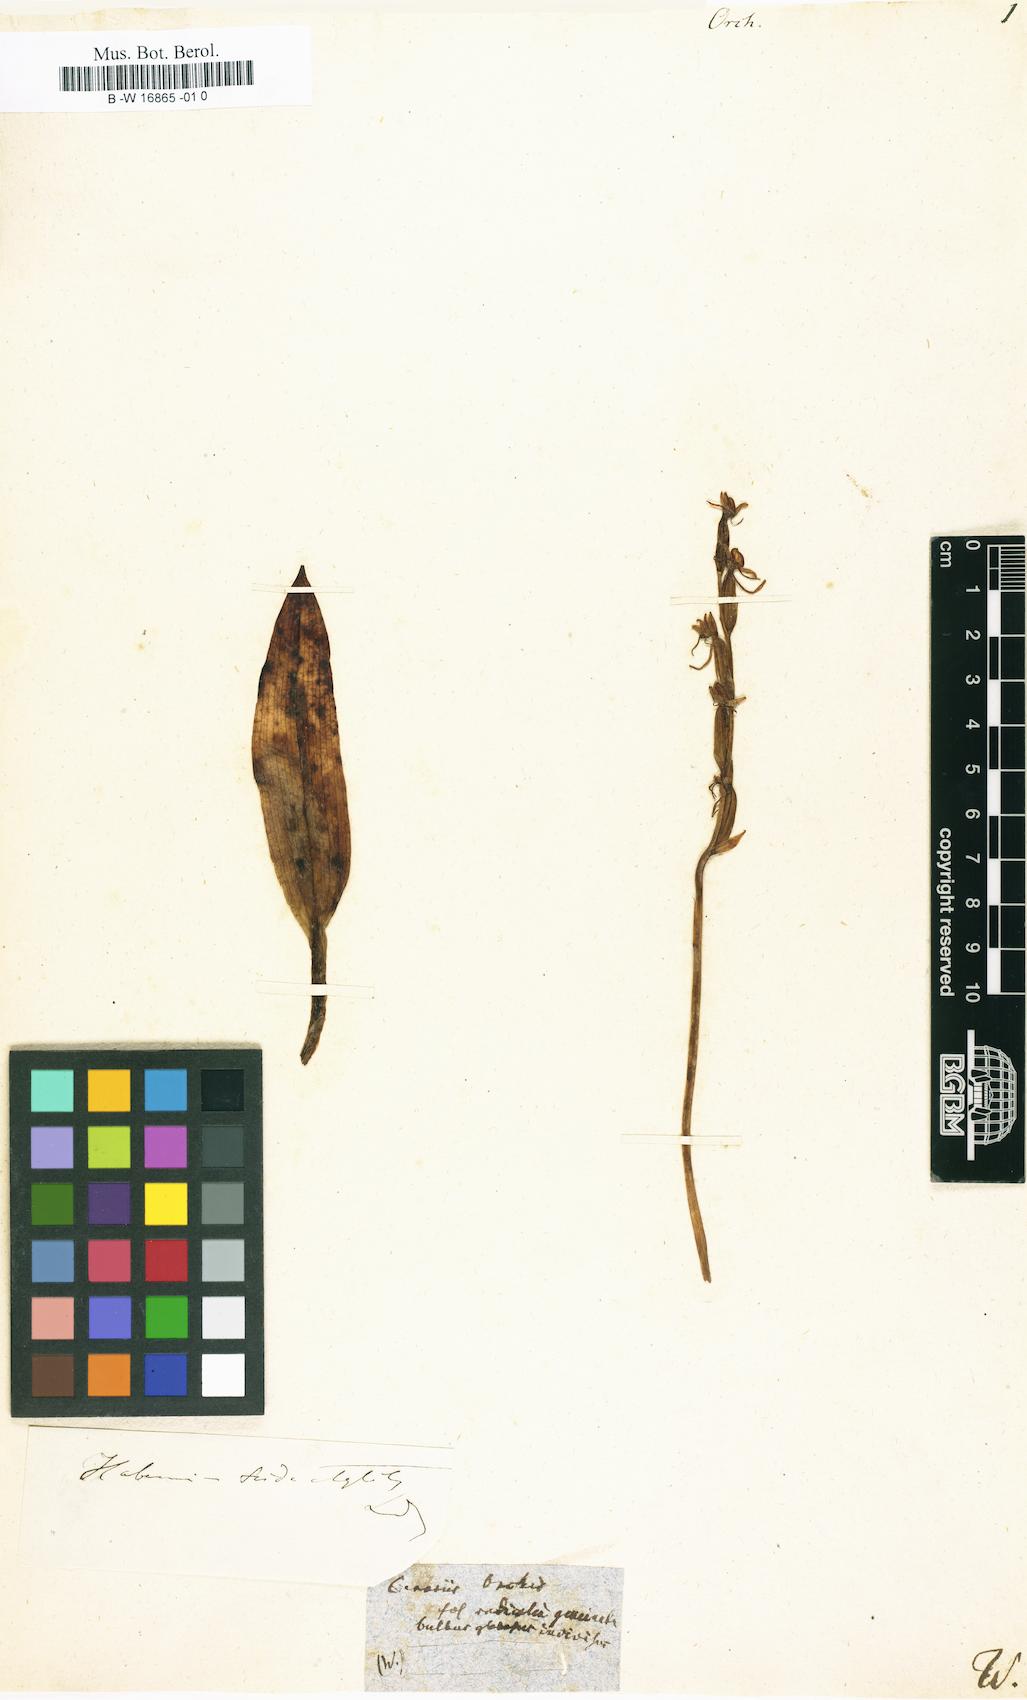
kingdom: Plantae
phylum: Tracheophyta
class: Liliopsida
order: Asparagales
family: Orchidaceae
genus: Orchis
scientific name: Orchis
